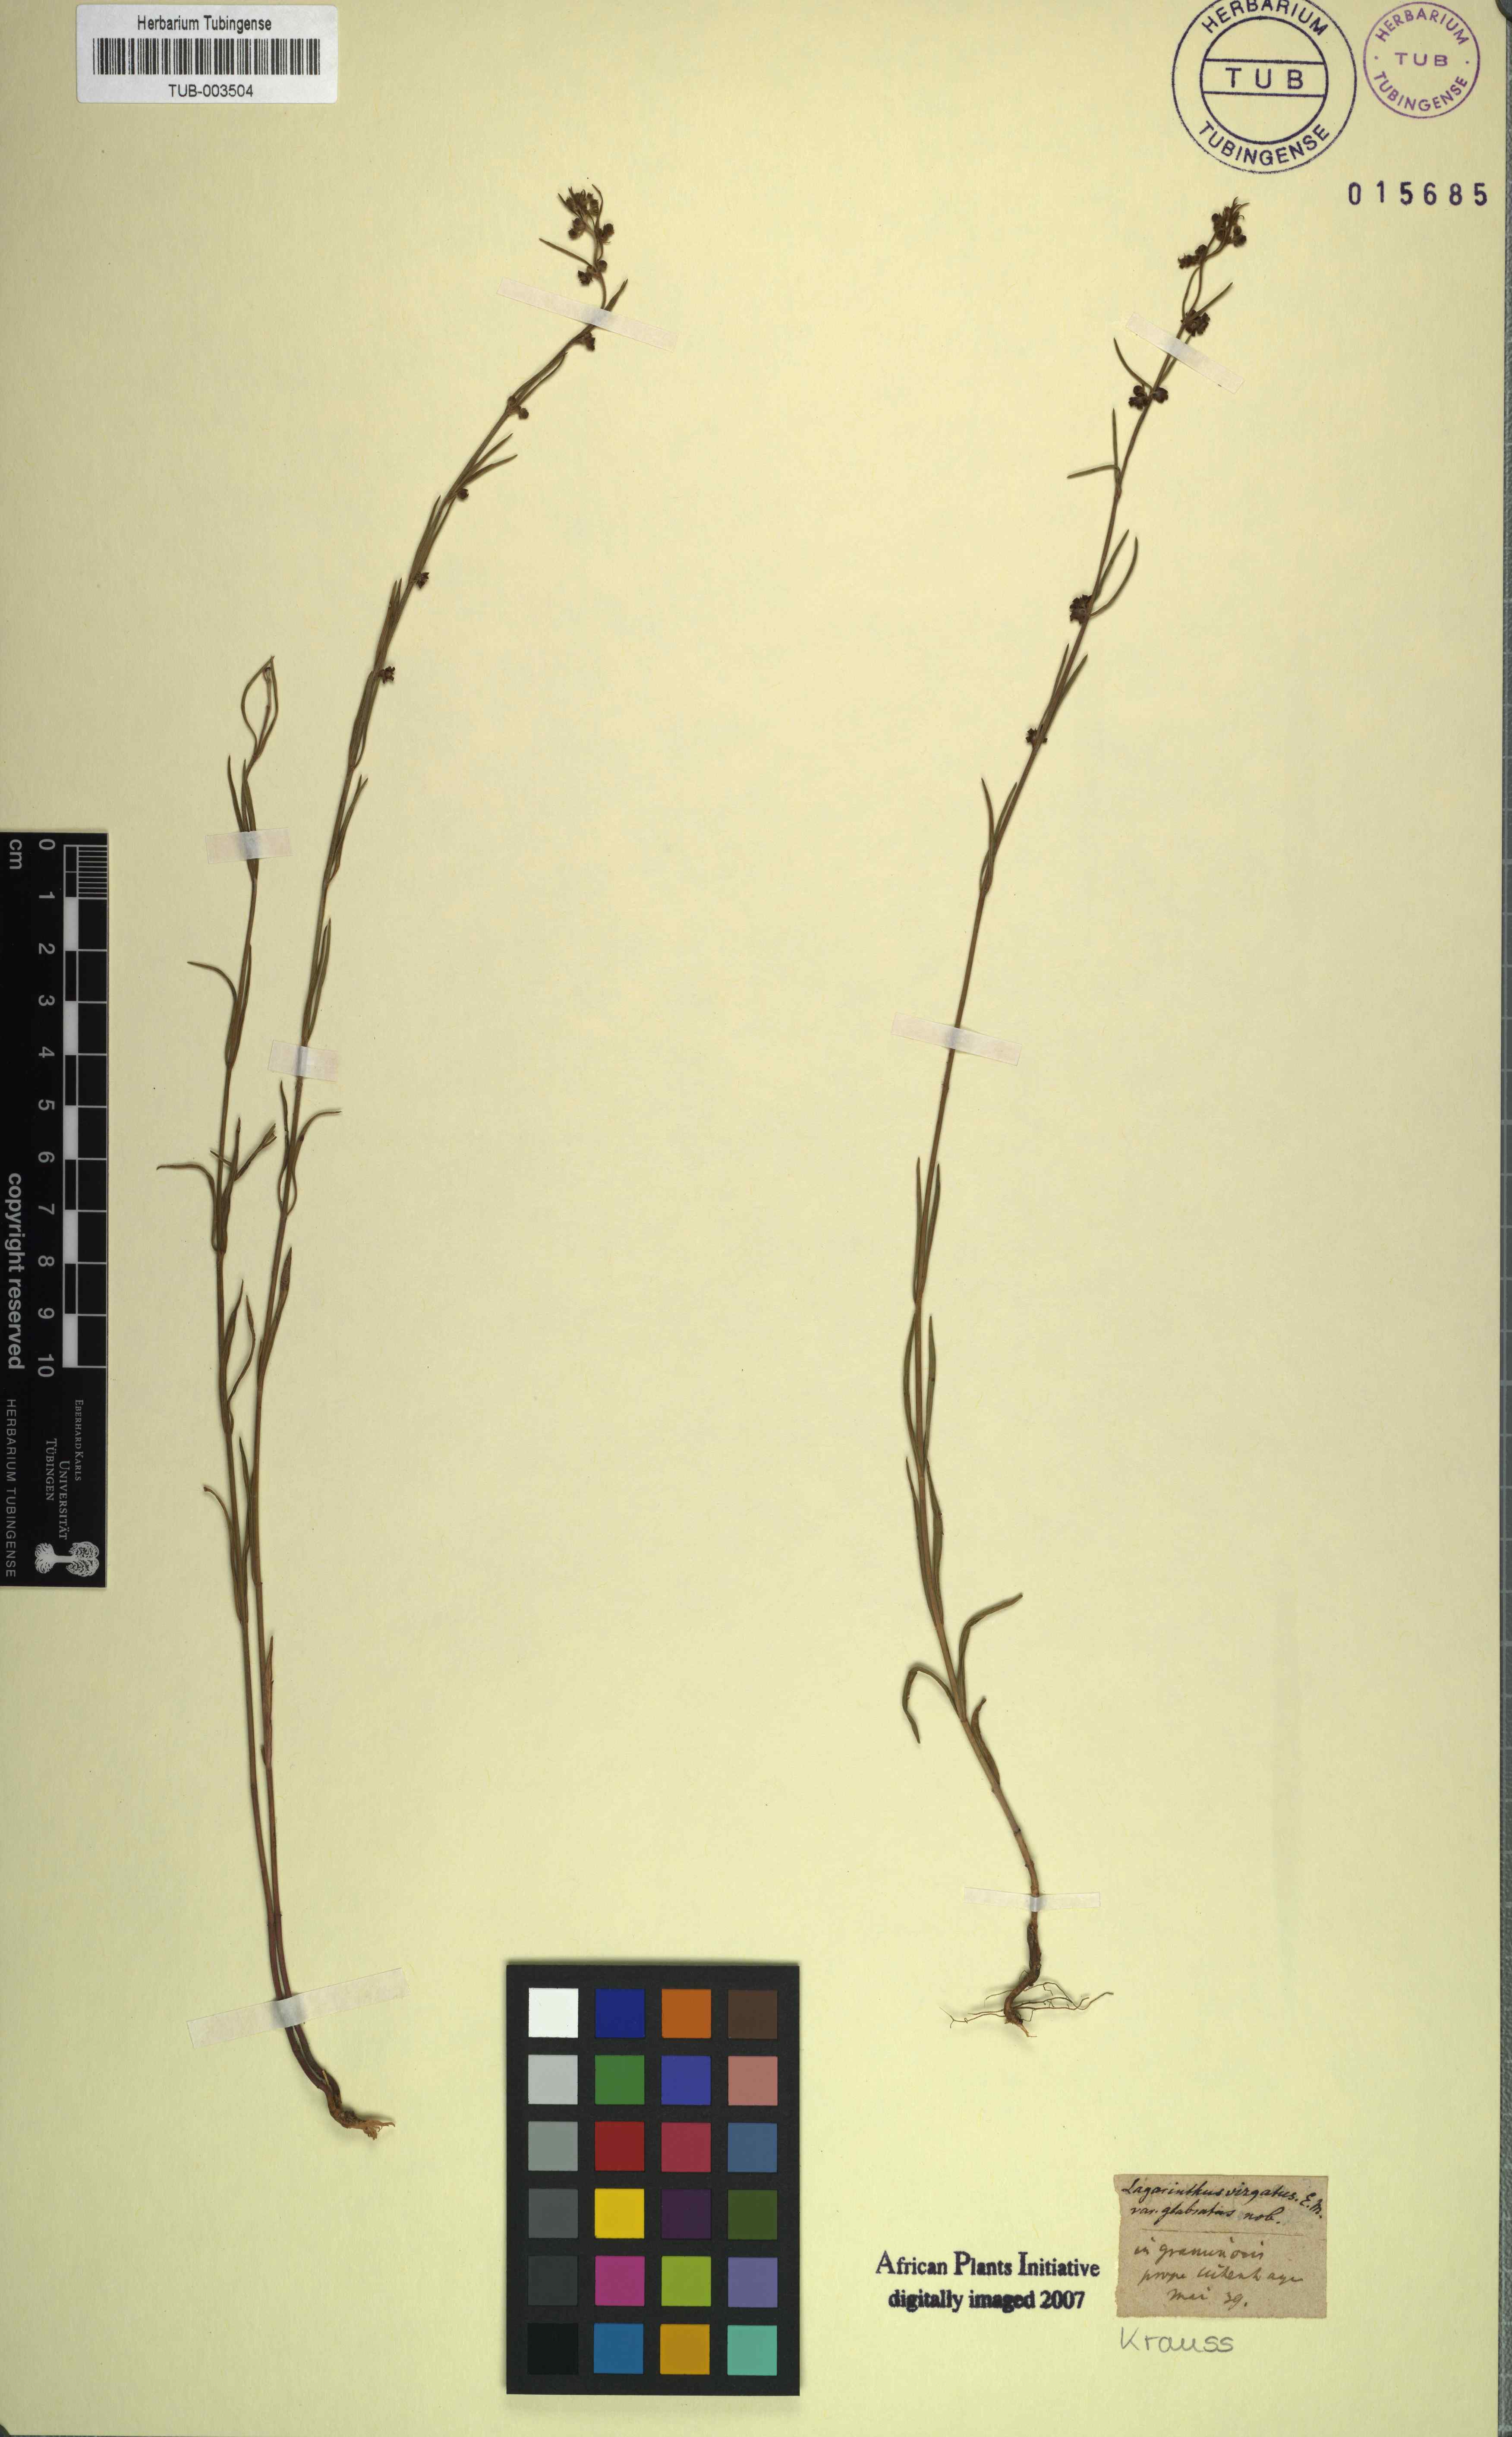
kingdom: Plantae
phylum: Tracheophyta
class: Magnoliopsida
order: Gentianales
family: Apocynaceae
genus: Aspidoglossum
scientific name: Aspidoglossum virgatum
